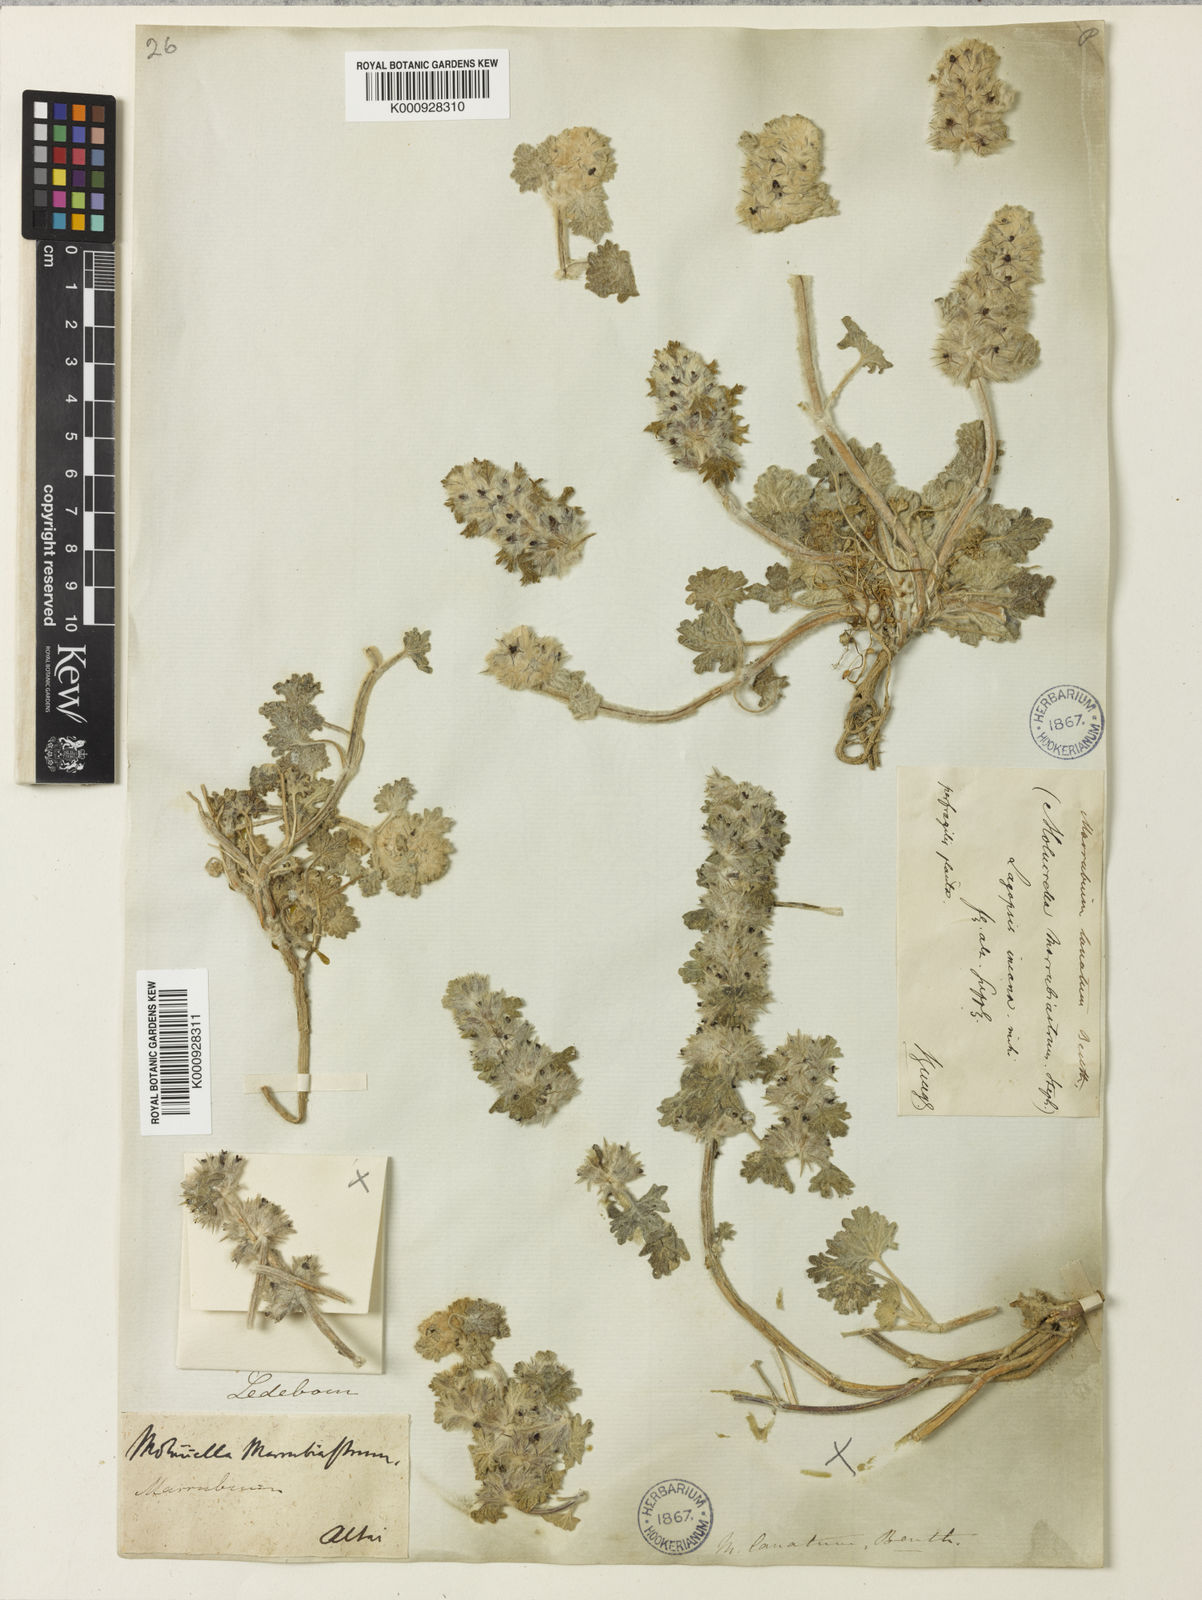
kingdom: Plantae
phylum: Tracheophyta
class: Magnoliopsida
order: Lamiales
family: Lamiaceae
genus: Lagopsis
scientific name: Lagopsis marrubiastrum
